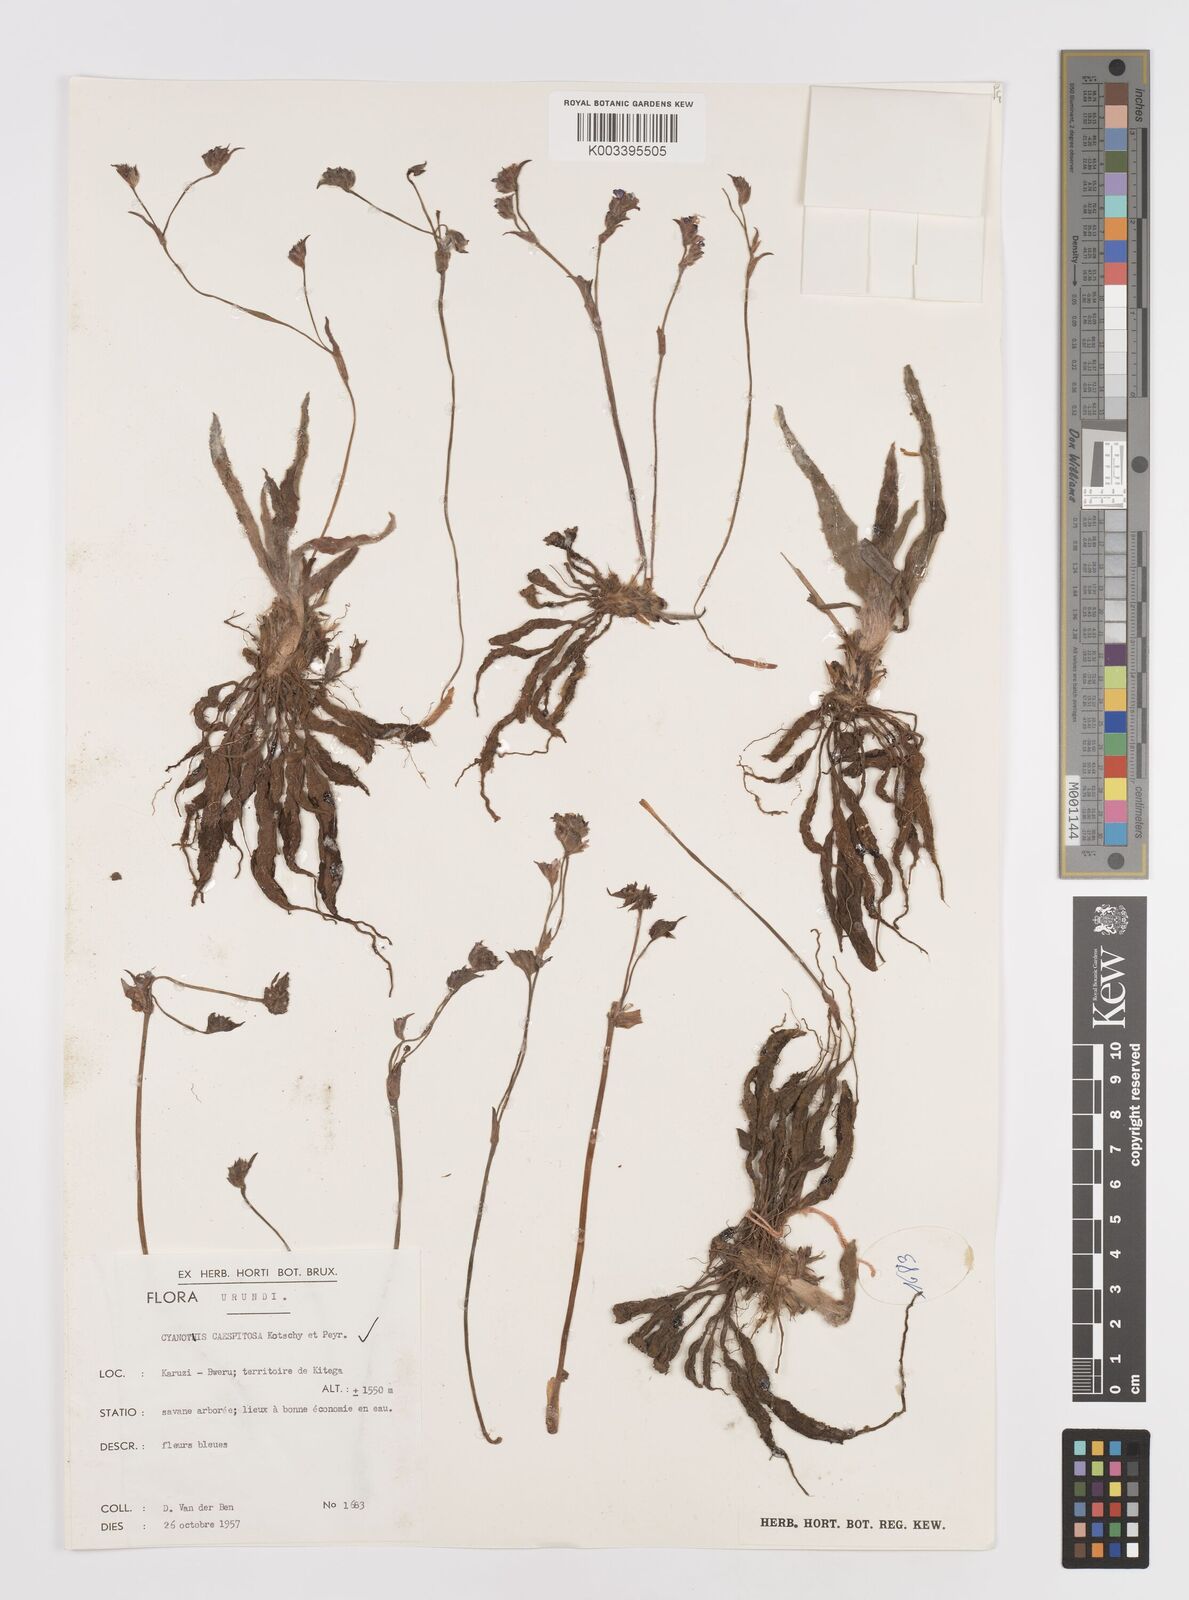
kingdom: Plantae
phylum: Tracheophyta
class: Liliopsida
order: Commelinales
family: Commelinaceae
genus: Cyanotis
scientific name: Cyanotis caespitosa
